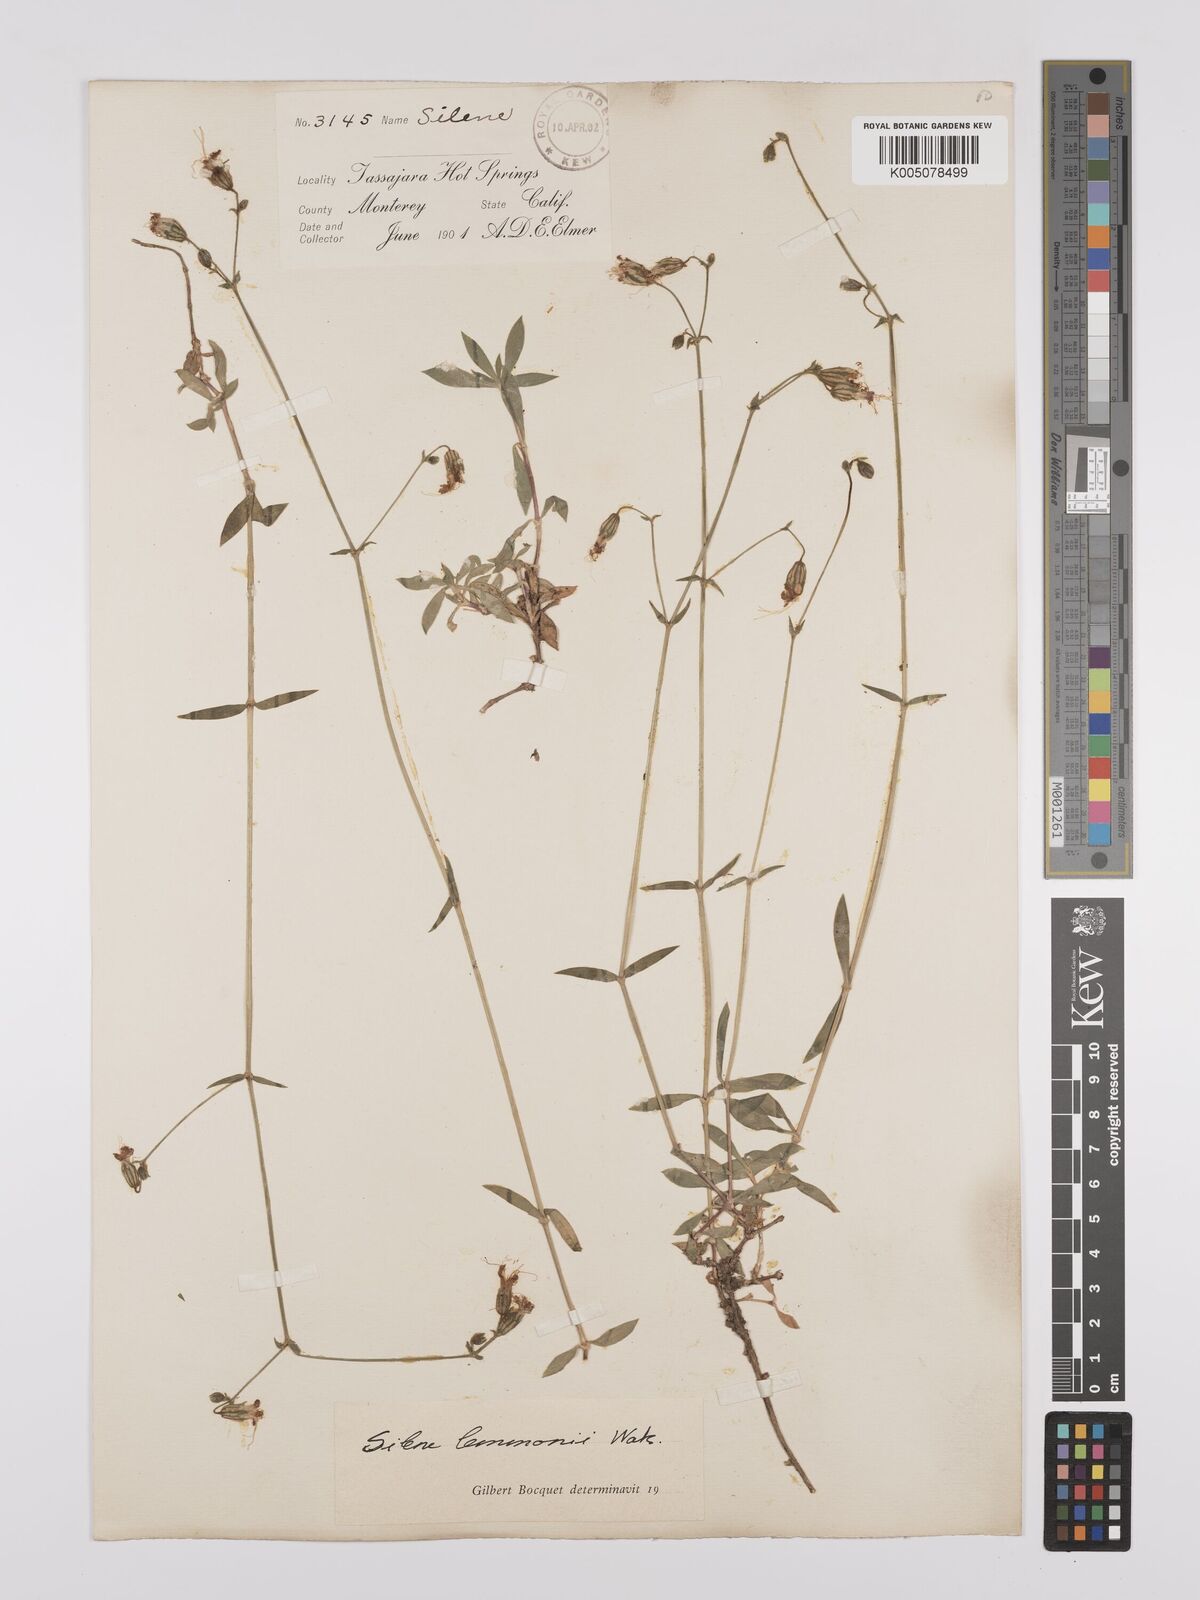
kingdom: Plantae
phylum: Tracheophyta
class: Magnoliopsida
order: Caryophyllales
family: Caryophyllaceae
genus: Silene
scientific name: Silene lemmonii
